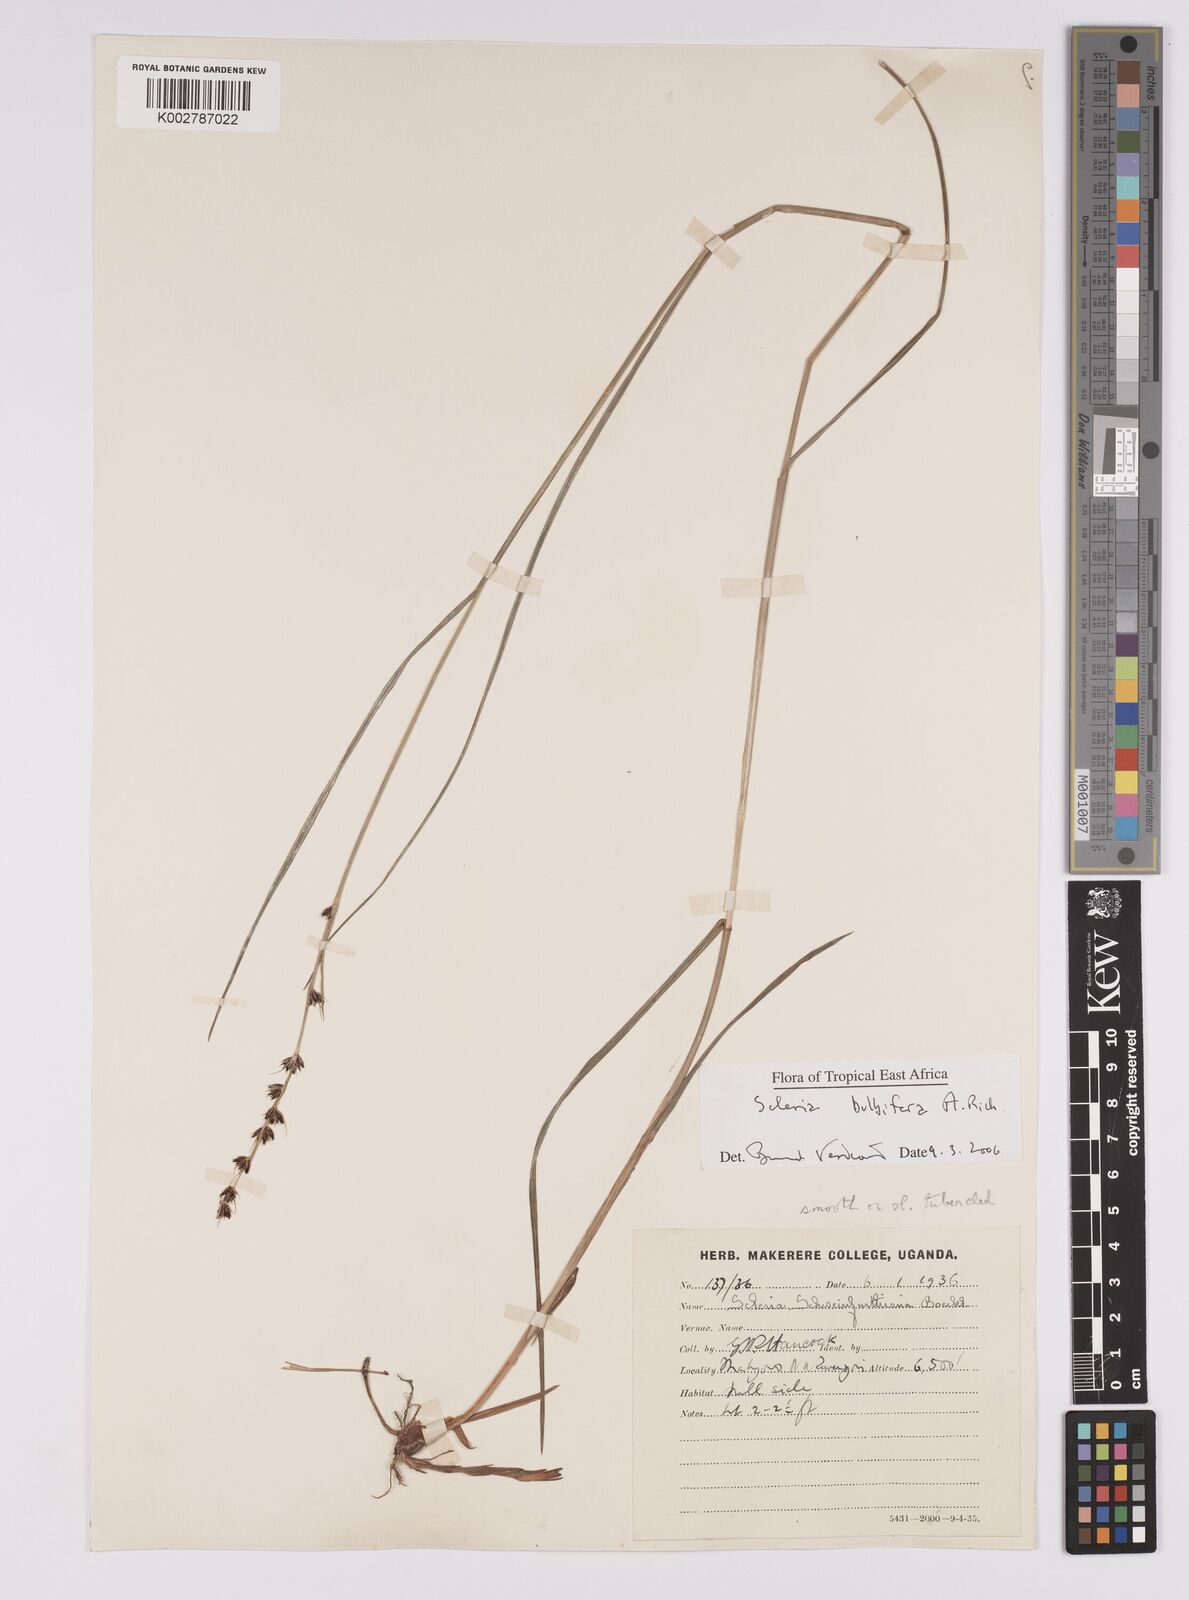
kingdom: Plantae
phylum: Tracheophyta
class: Liliopsida
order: Poales
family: Cyperaceae
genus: Scleria
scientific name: Scleria bulbifera
